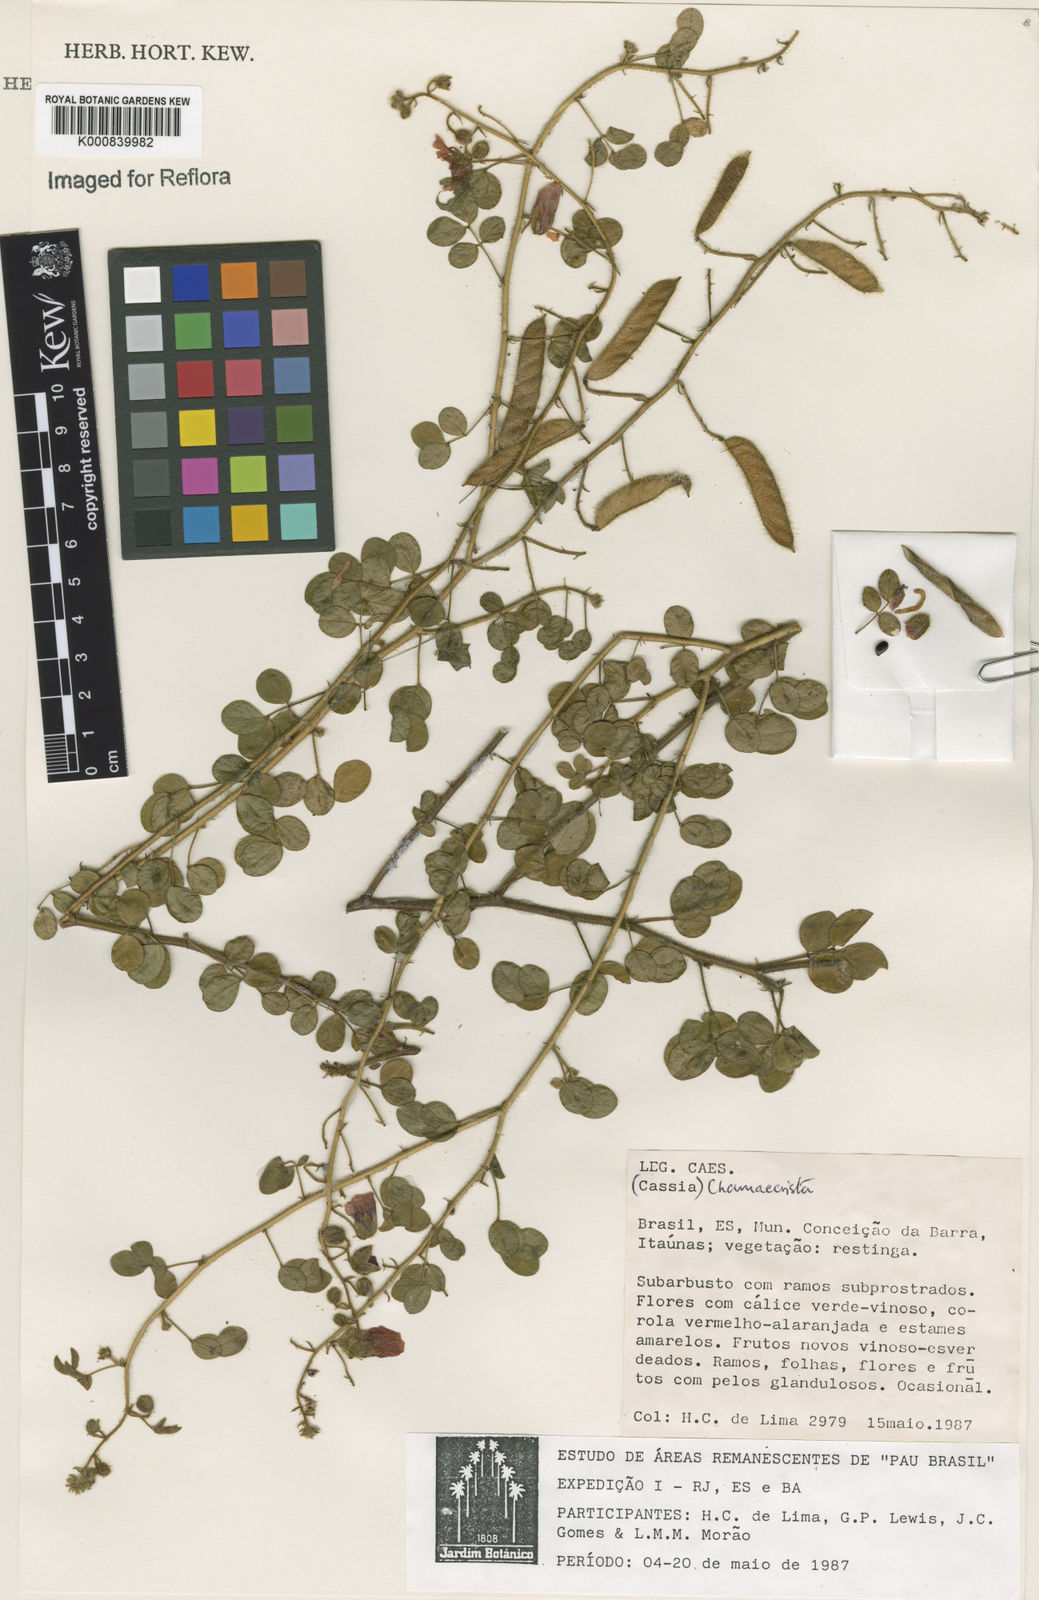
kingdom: Plantae
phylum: Tracheophyta
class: Magnoliopsida
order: Fabales
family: Fabaceae
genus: Chamaecrista
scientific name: Chamaecrista
